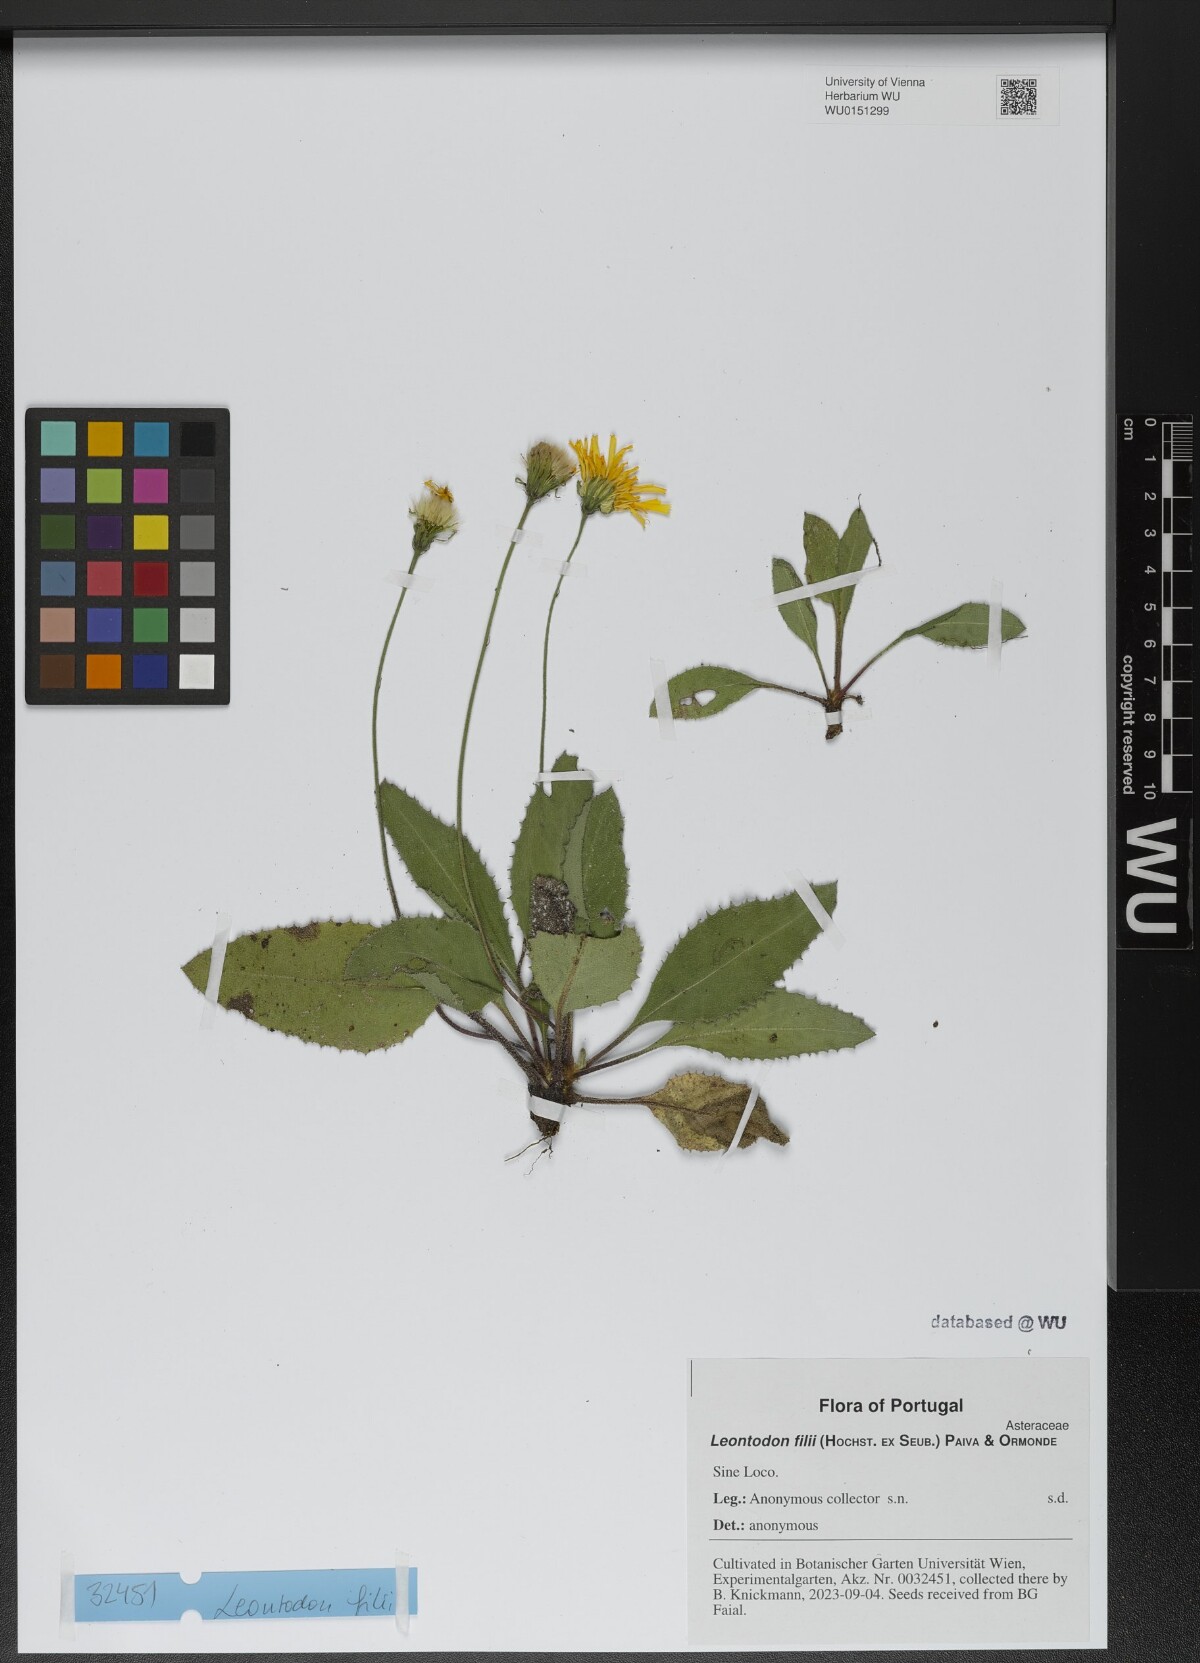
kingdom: Plantae
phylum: Tracheophyta
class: Magnoliopsida
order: Asterales
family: Asteraceae
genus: Leontodon
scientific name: Leontodon filii
